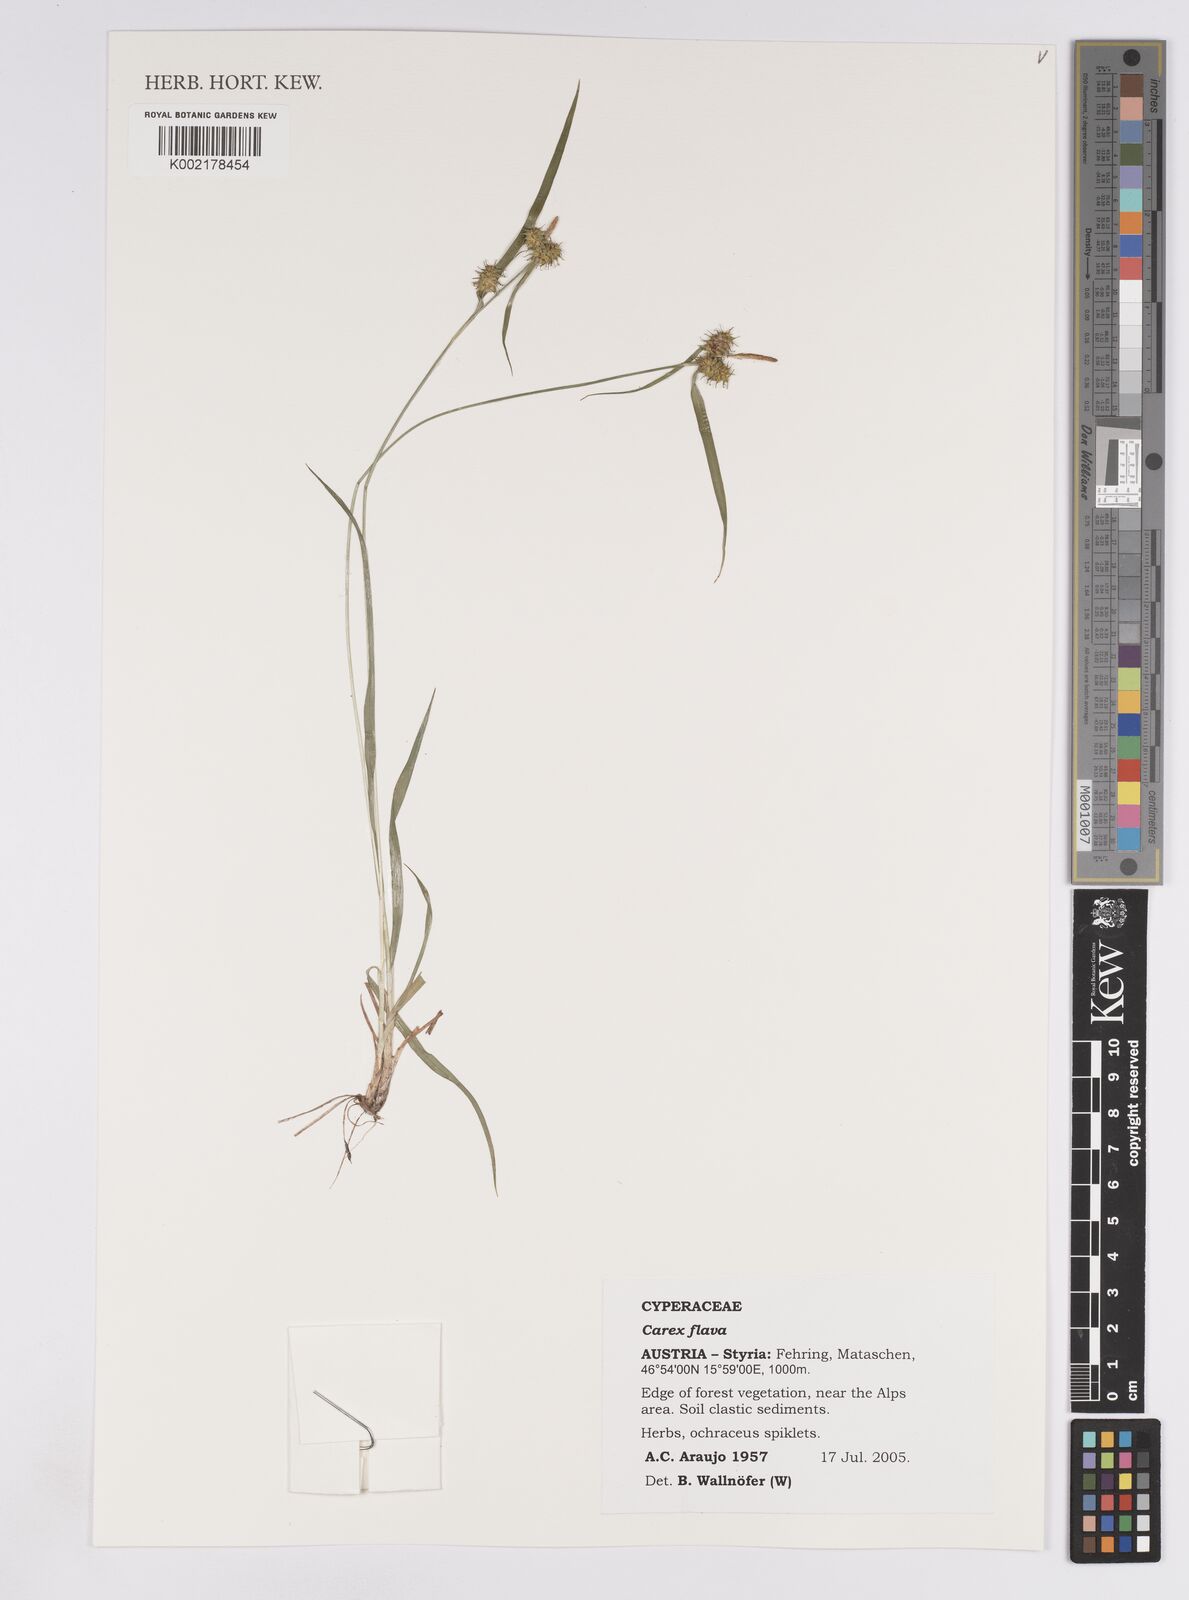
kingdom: Plantae
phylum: Tracheophyta
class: Liliopsida
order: Poales
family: Cyperaceae
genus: Carex
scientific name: Carex demissa
